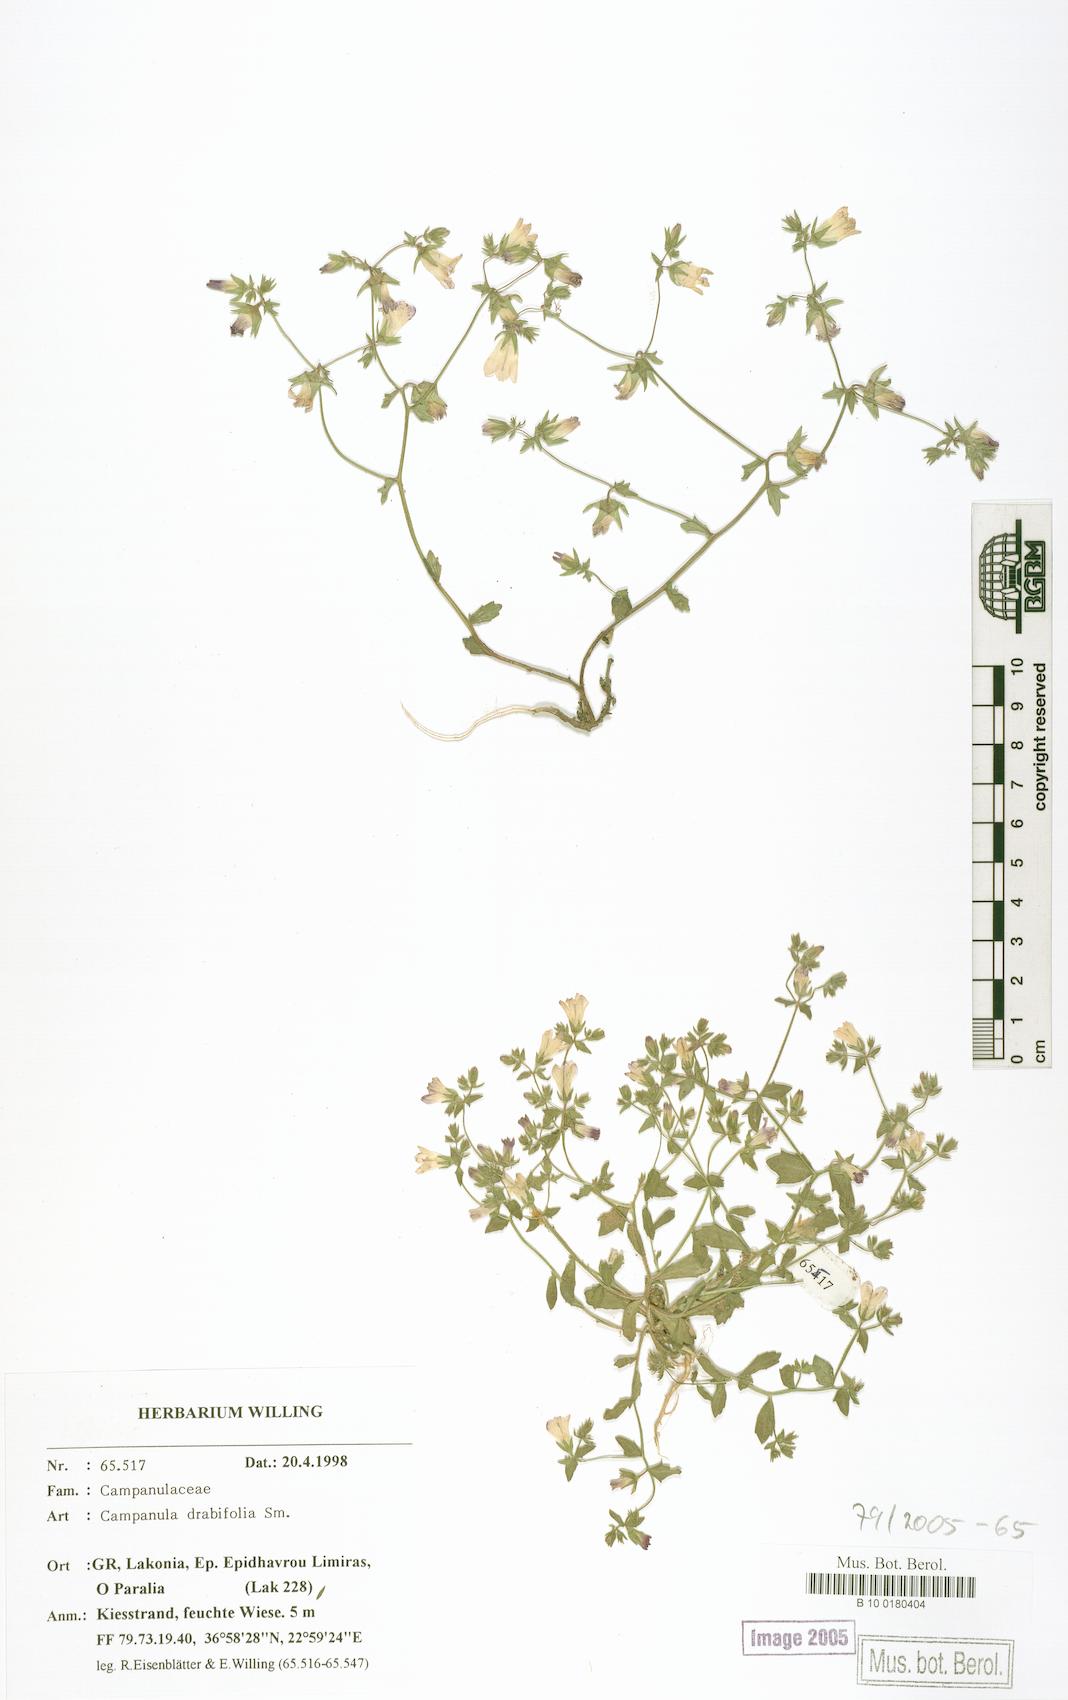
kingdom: Plantae
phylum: Tracheophyta
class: Magnoliopsida
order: Asterales
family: Campanulaceae
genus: Campanula
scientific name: Campanula drabifolia
